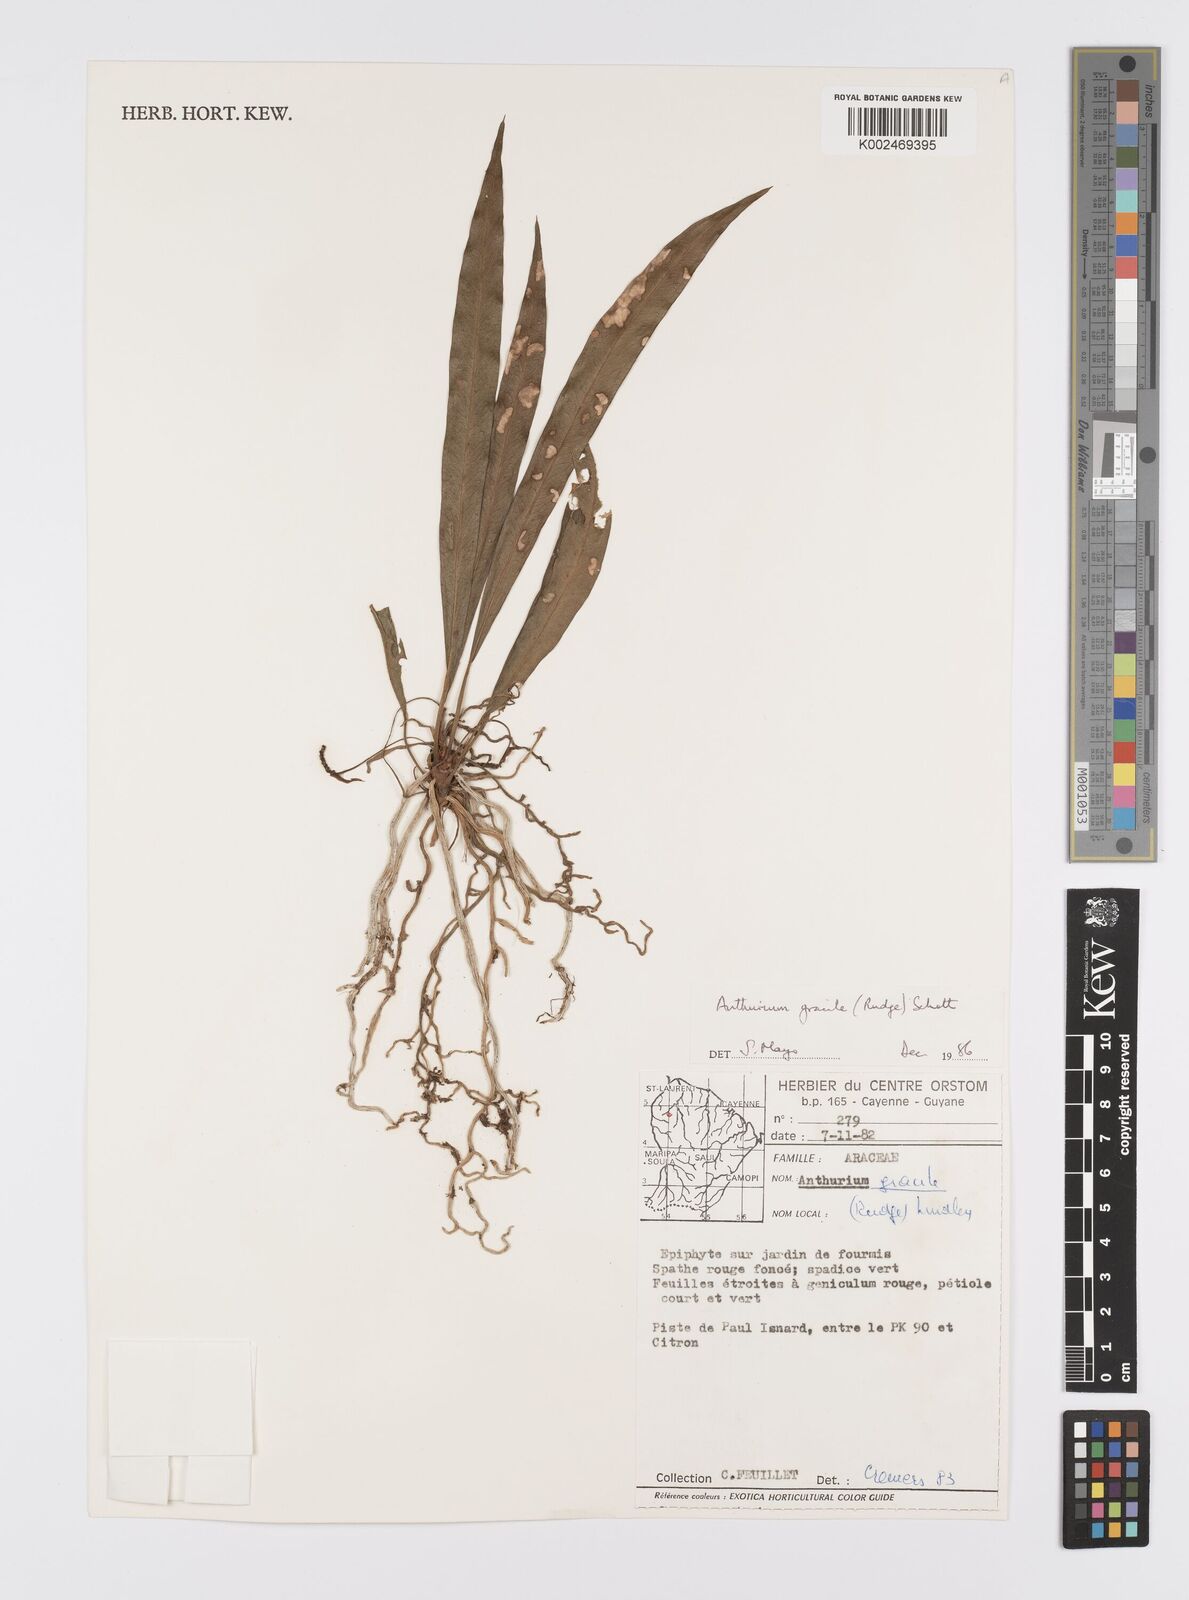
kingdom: Plantae
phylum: Tracheophyta
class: Liliopsida
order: Alismatales
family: Araceae
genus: Anthurium
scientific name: Anthurium gracile
